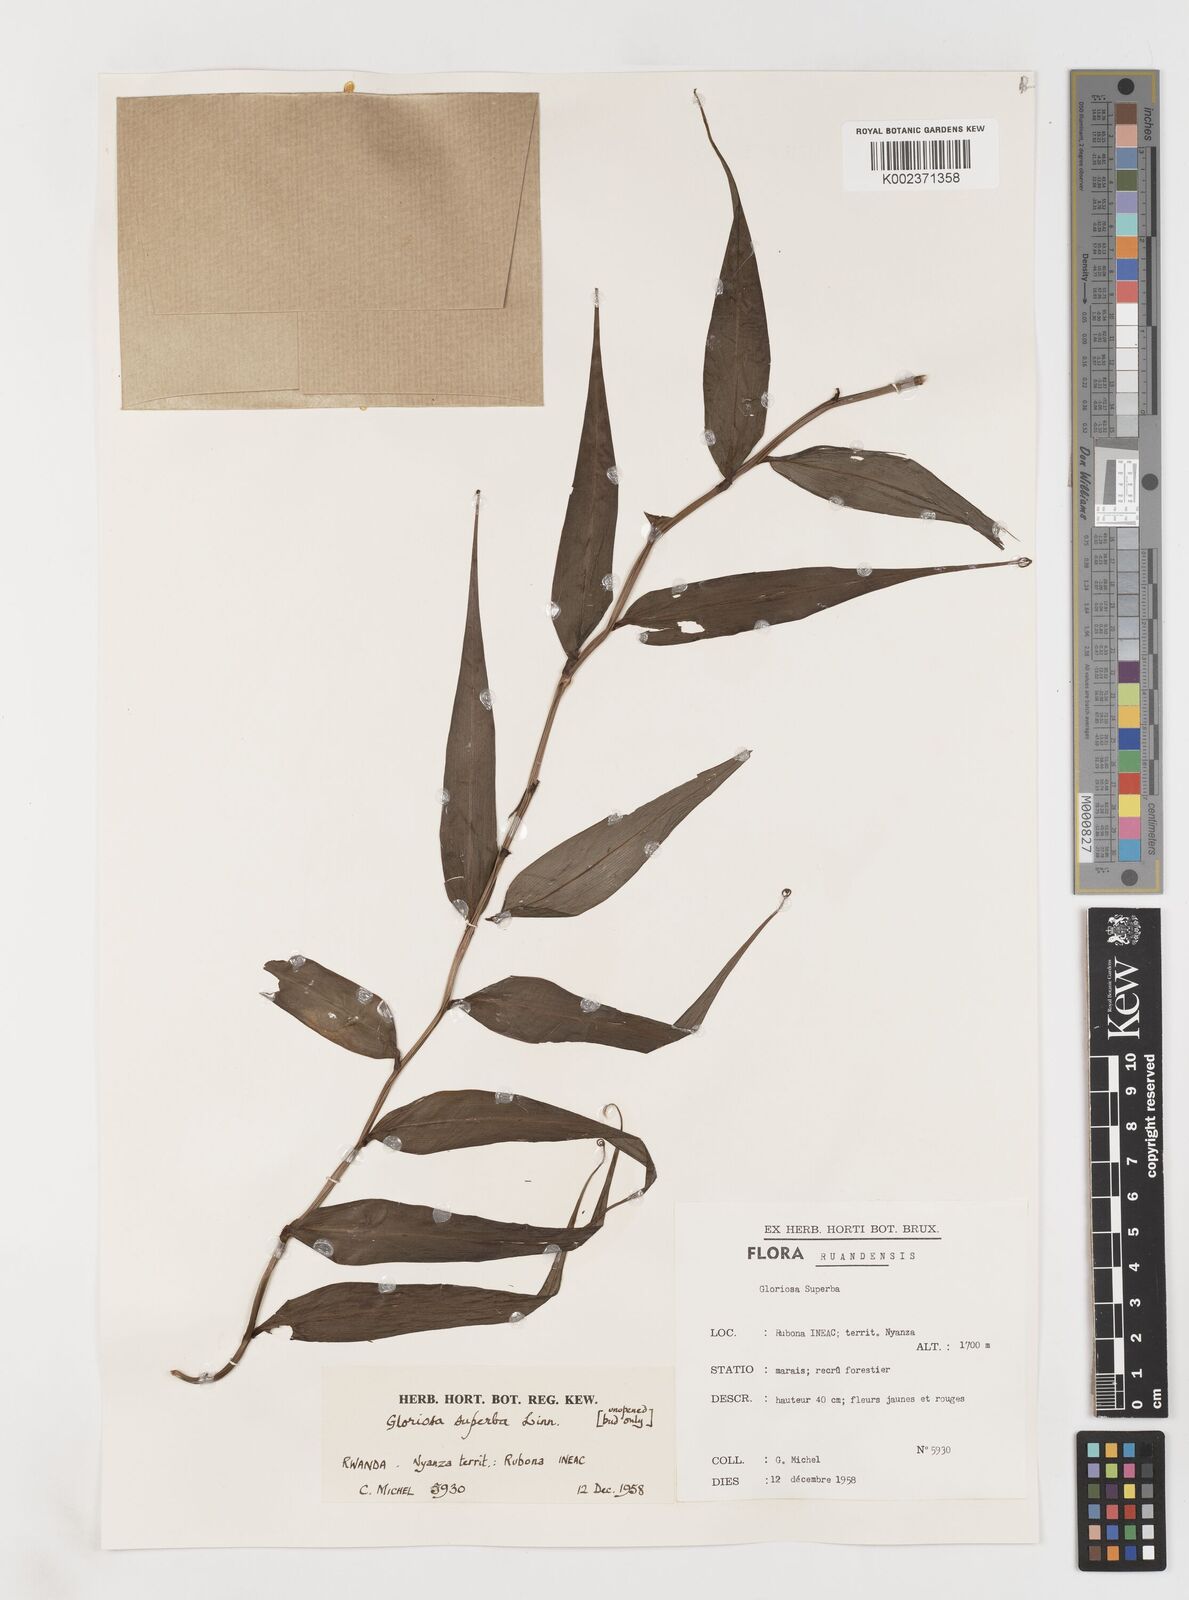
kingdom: Plantae
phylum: Tracheophyta
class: Liliopsida
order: Liliales
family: Colchicaceae
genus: Gloriosa
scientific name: Gloriosa superba
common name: Flame lily
